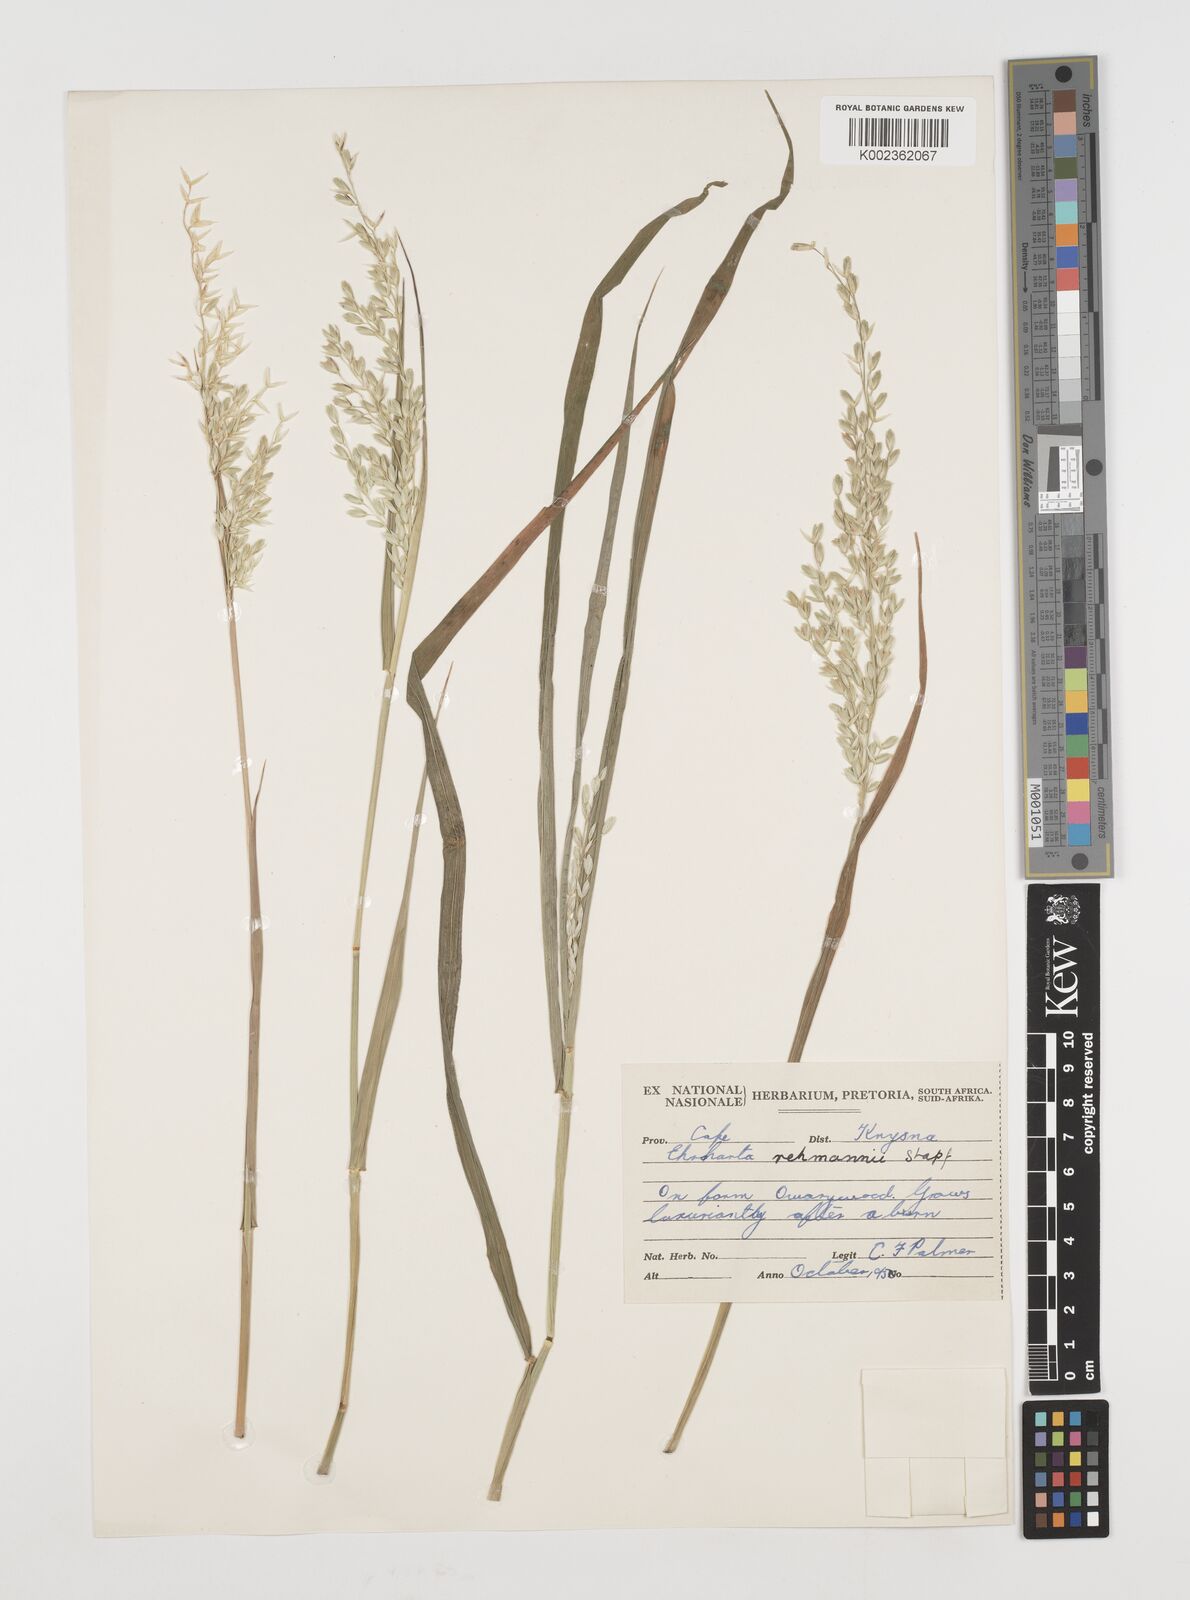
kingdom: Plantae
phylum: Tracheophyta
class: Liliopsida
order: Poales
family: Poaceae
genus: Ehrharta
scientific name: Ehrharta rehmannii
